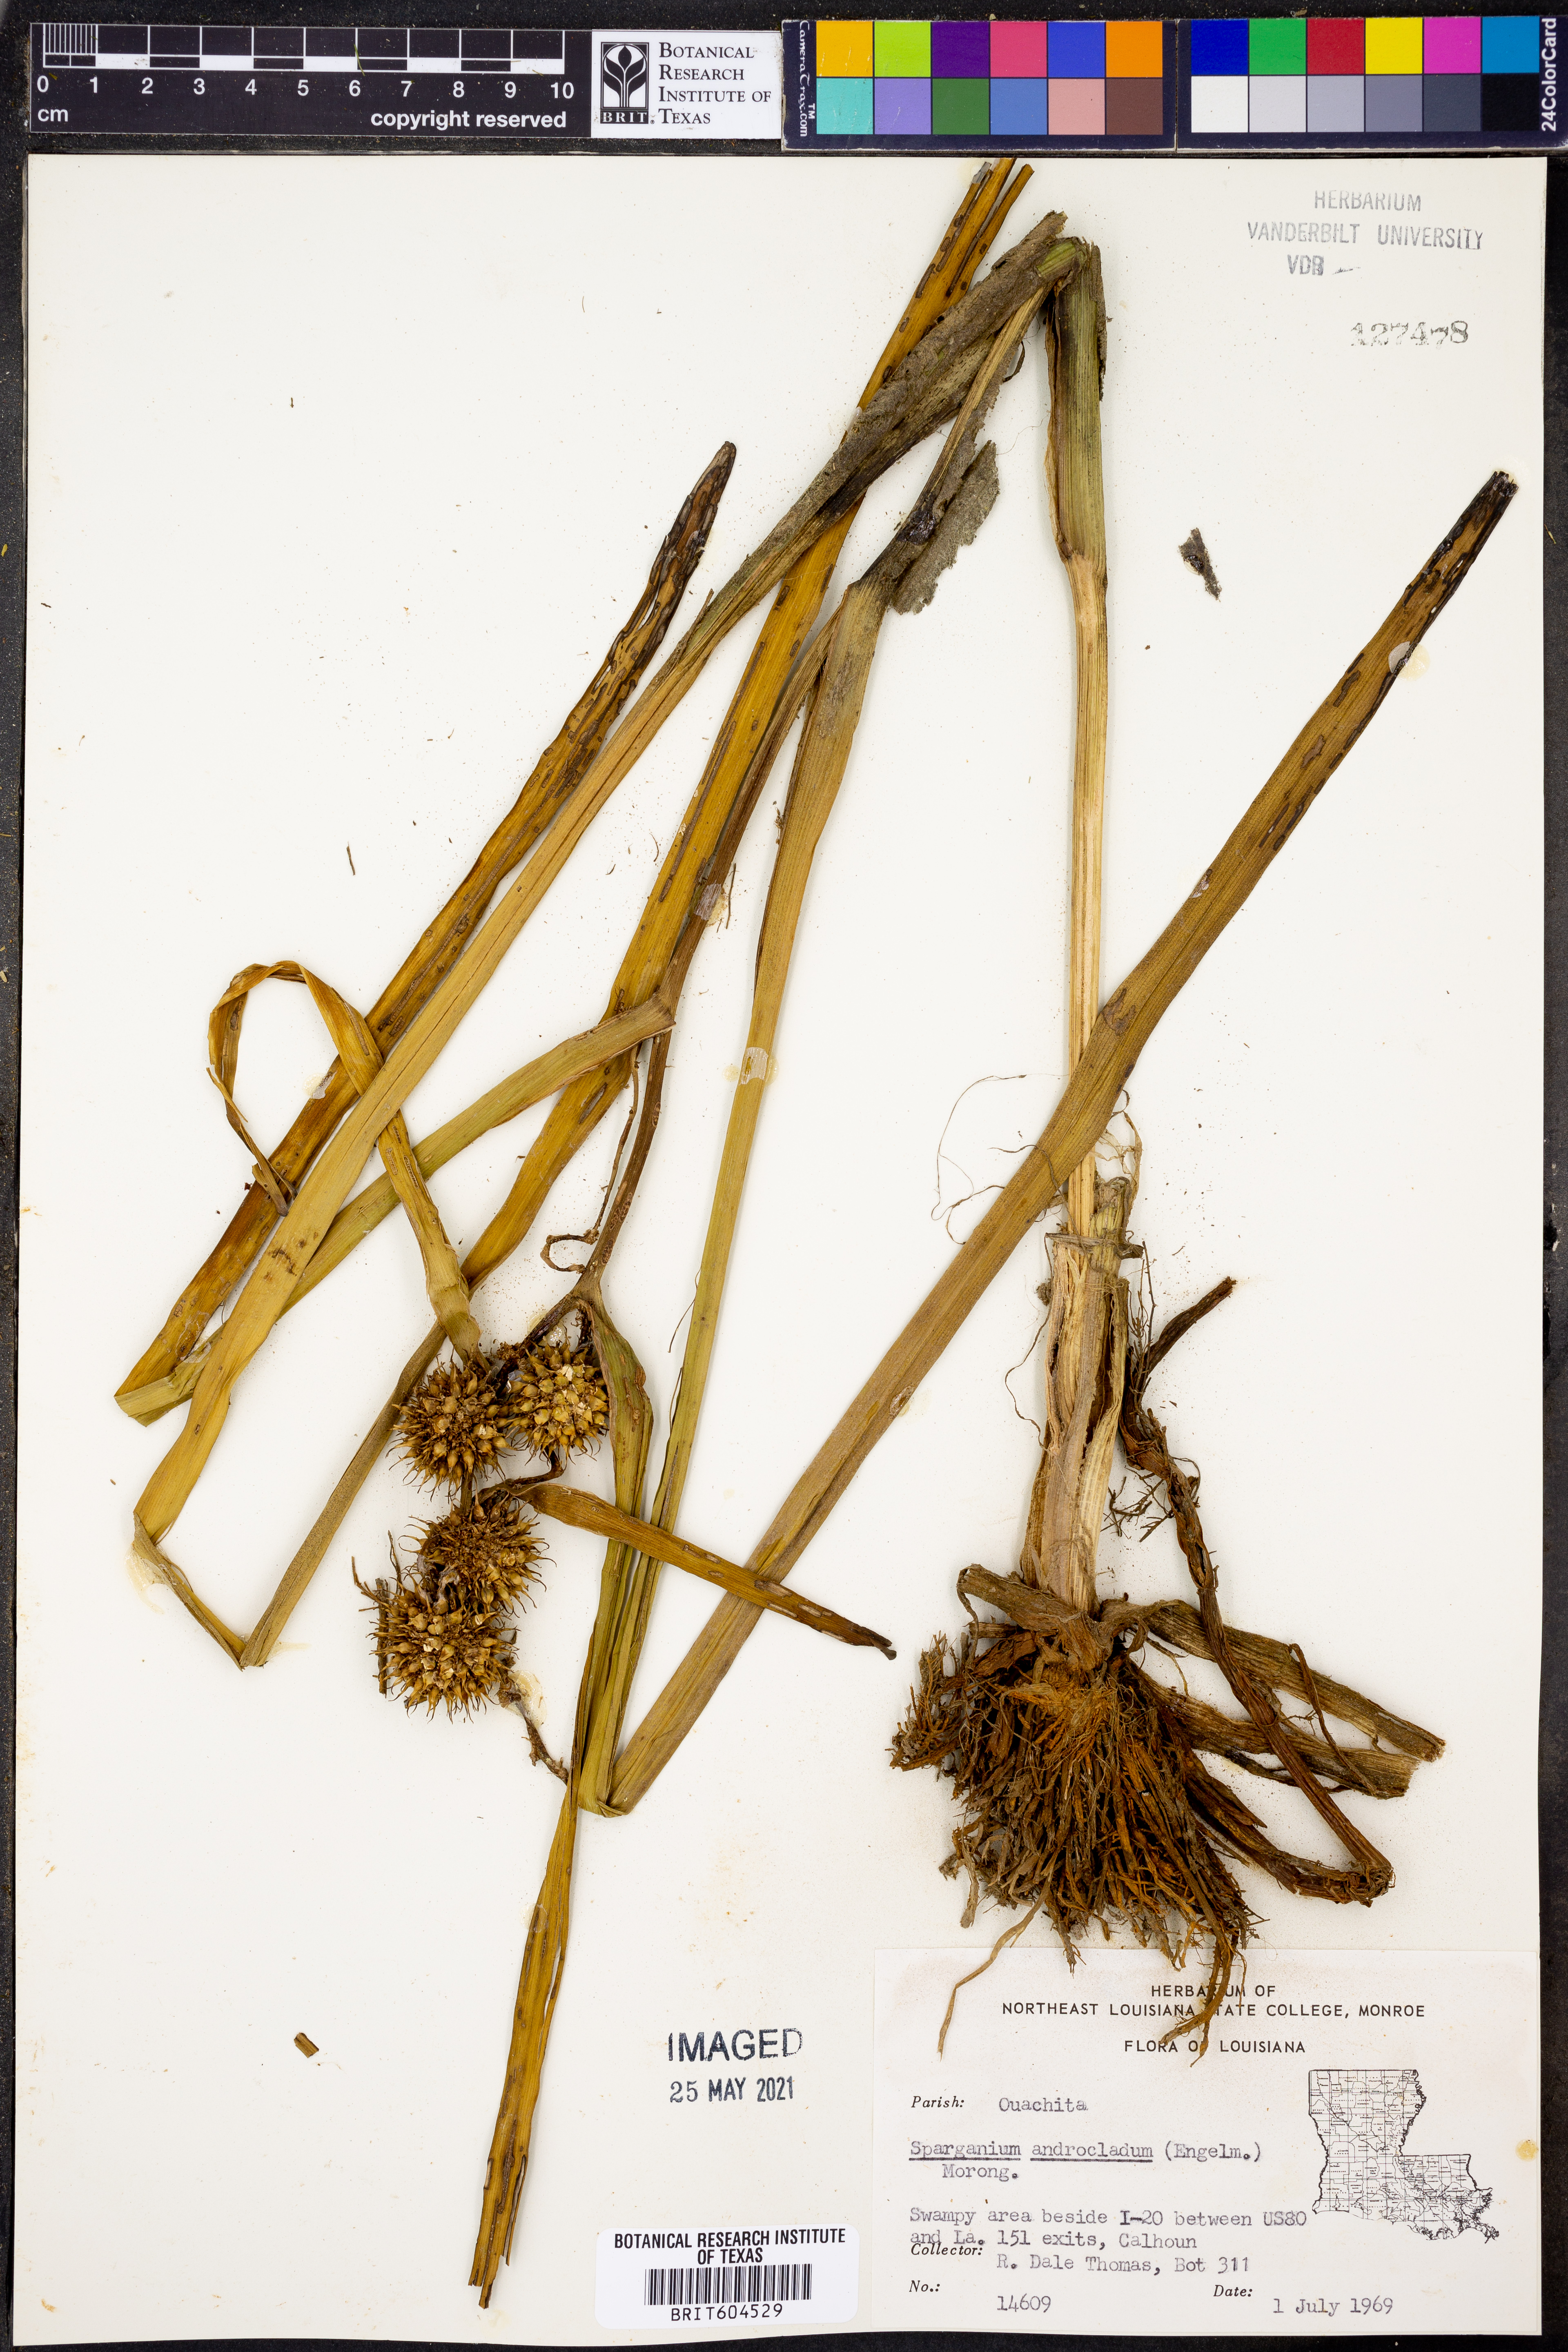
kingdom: Plantae
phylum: Tracheophyta
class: Liliopsida
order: Poales
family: Typhaceae
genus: Sparganium
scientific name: Sparganium androcladum
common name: Branched burreed
